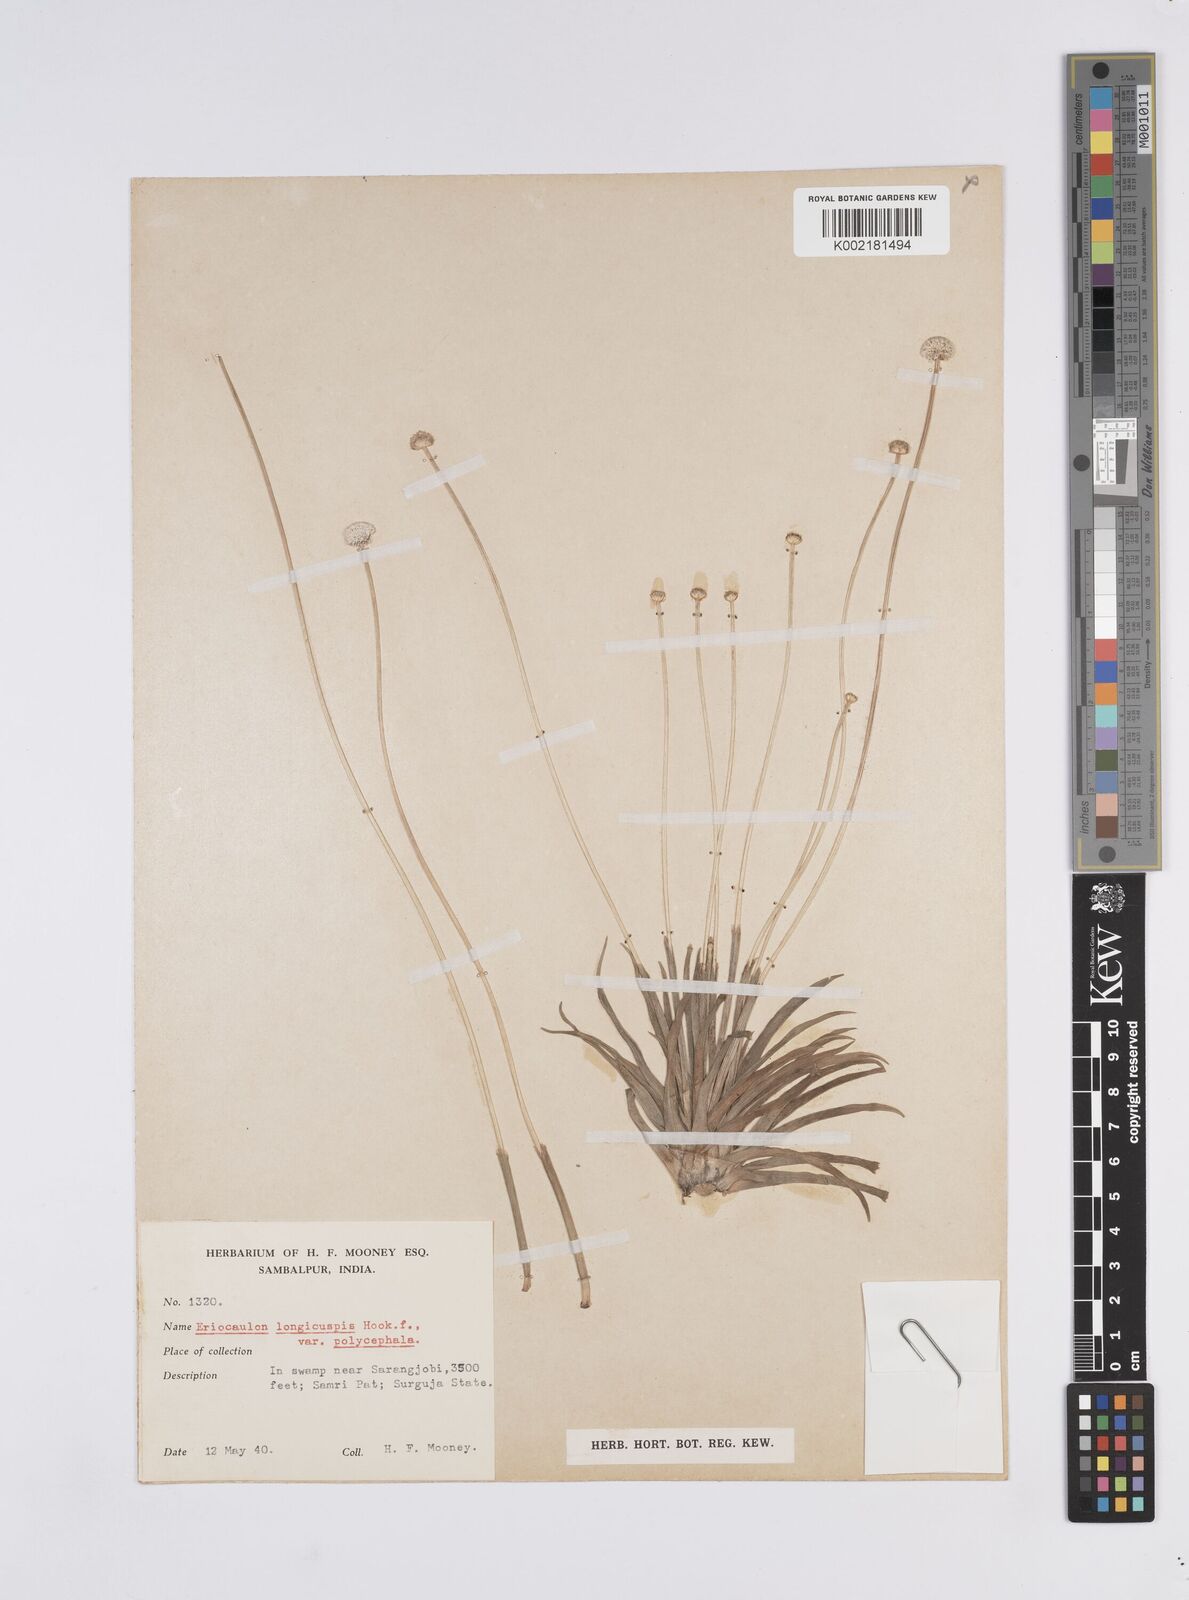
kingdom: Plantae
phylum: Tracheophyta
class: Liliopsida
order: Poales
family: Eriocaulaceae
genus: Eriocaulon
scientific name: Eriocaulon longicuspe
